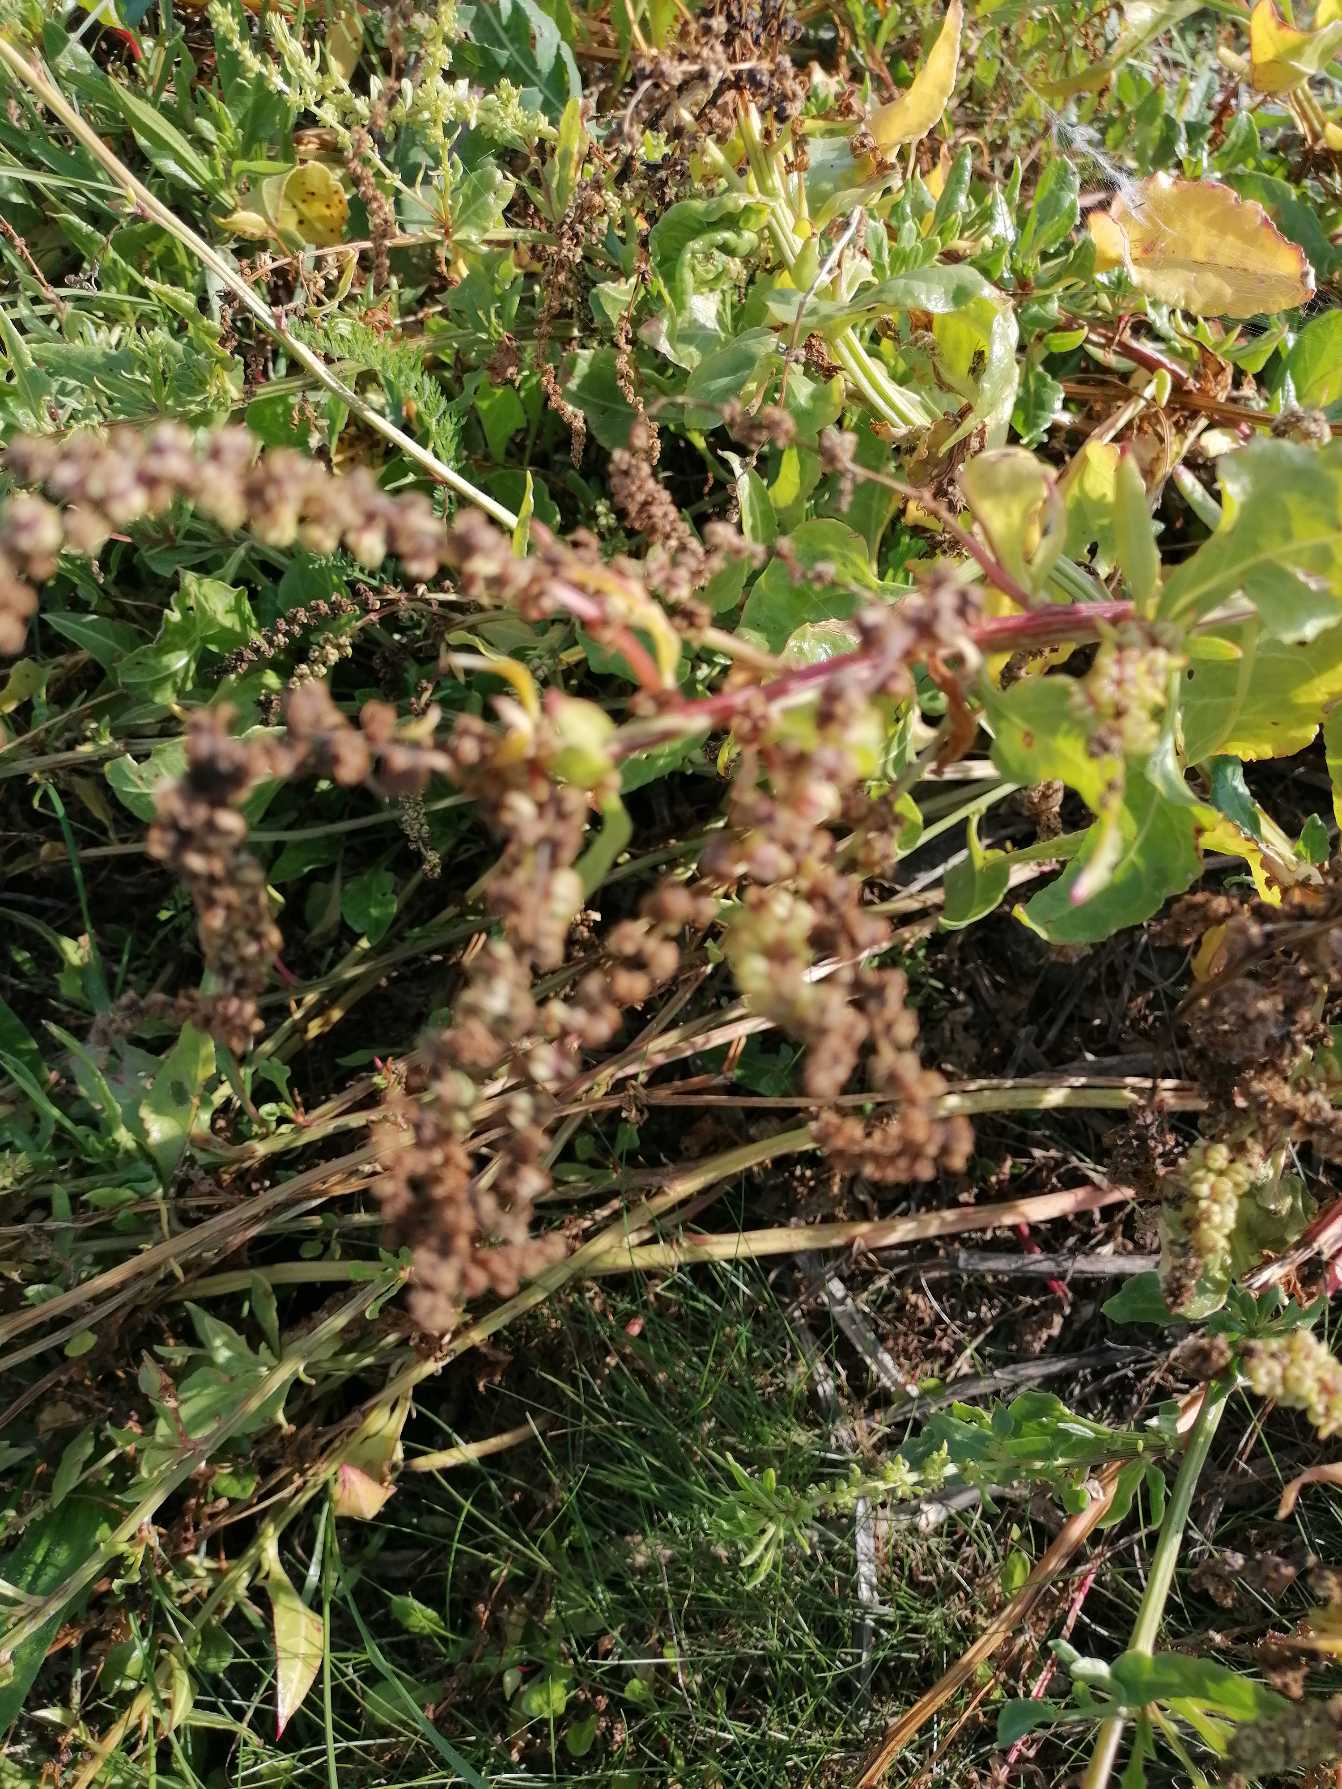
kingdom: Plantae
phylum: Tracheophyta
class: Magnoliopsida
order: Caryophyllales
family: Amaranthaceae
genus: Beta
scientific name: Beta maritima
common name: Strand-bede
